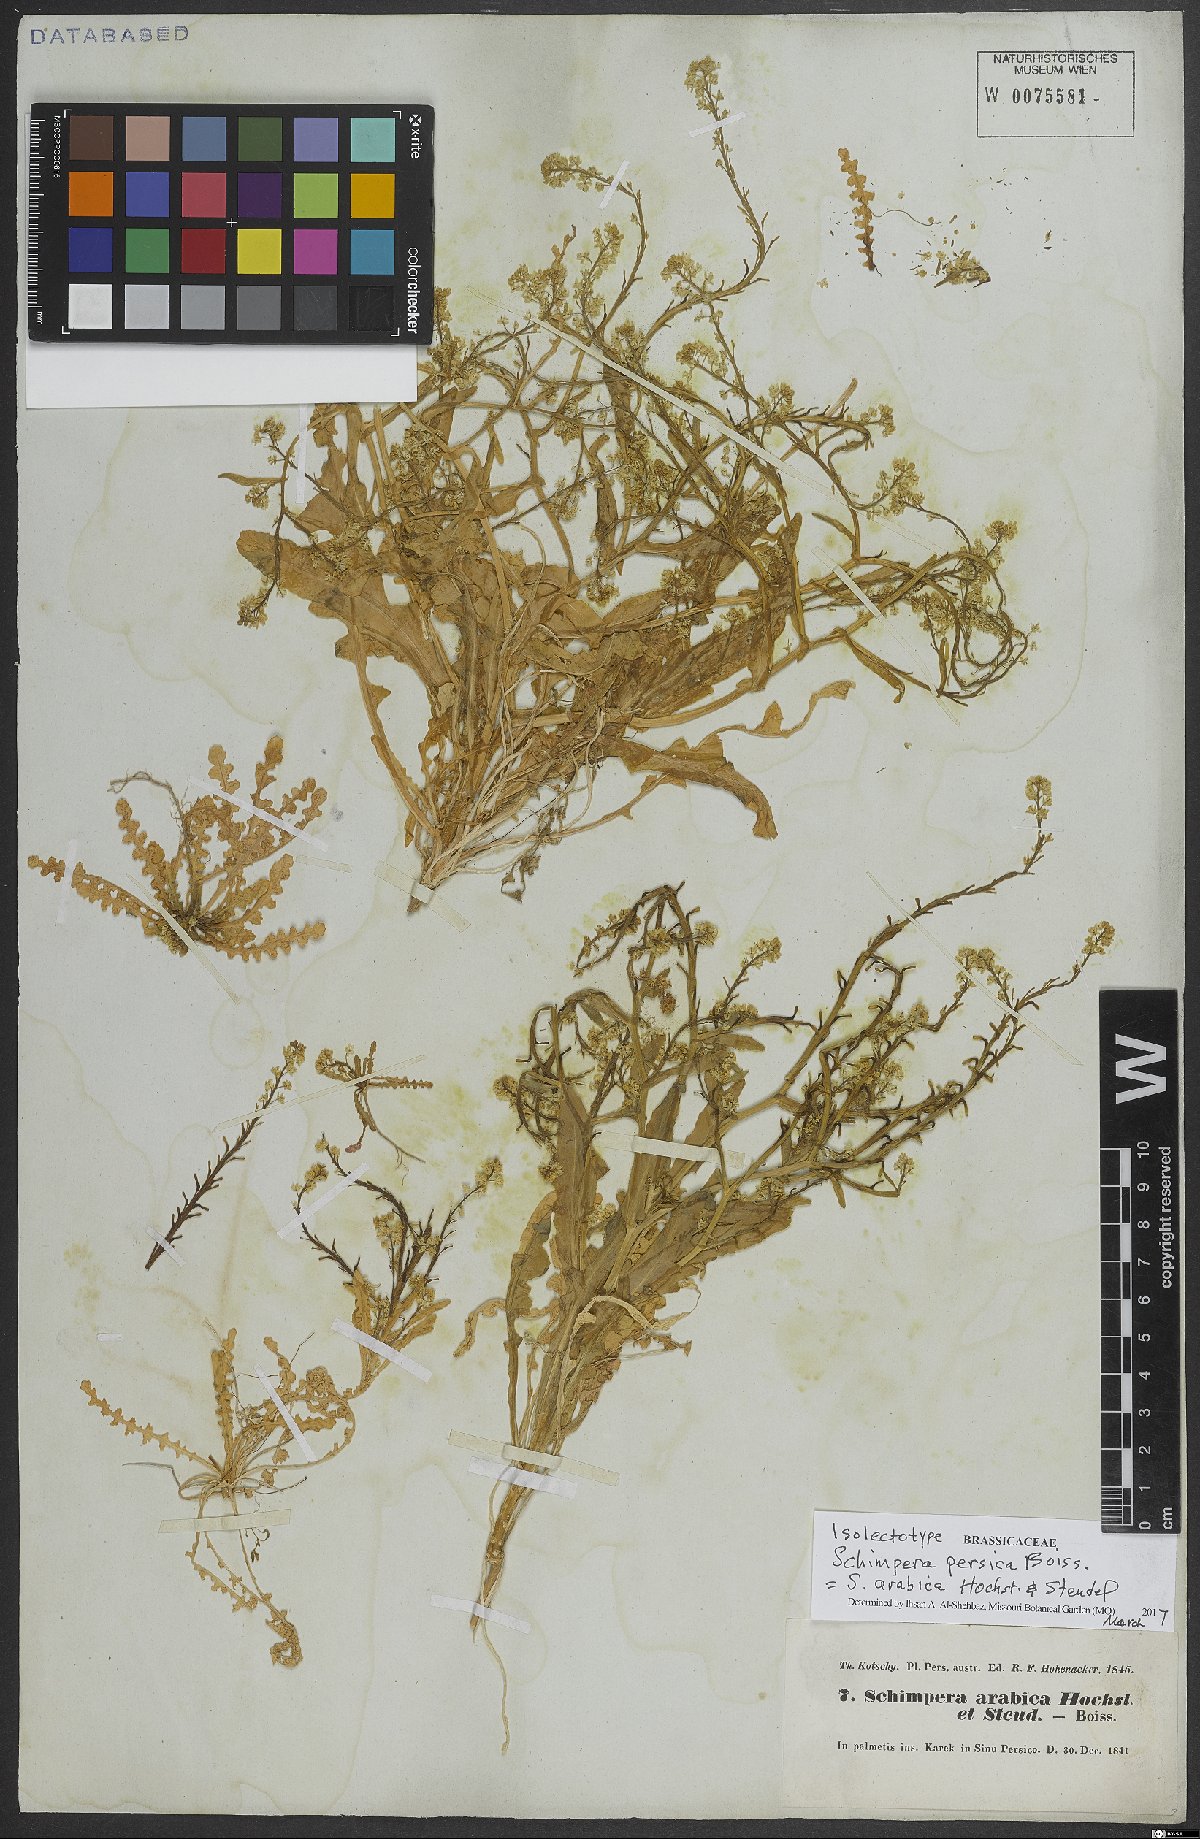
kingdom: Plantae
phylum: Tracheophyta
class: Magnoliopsida
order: Brassicales
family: Brassicaceae
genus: Schimpera
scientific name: Schimpera arabica
